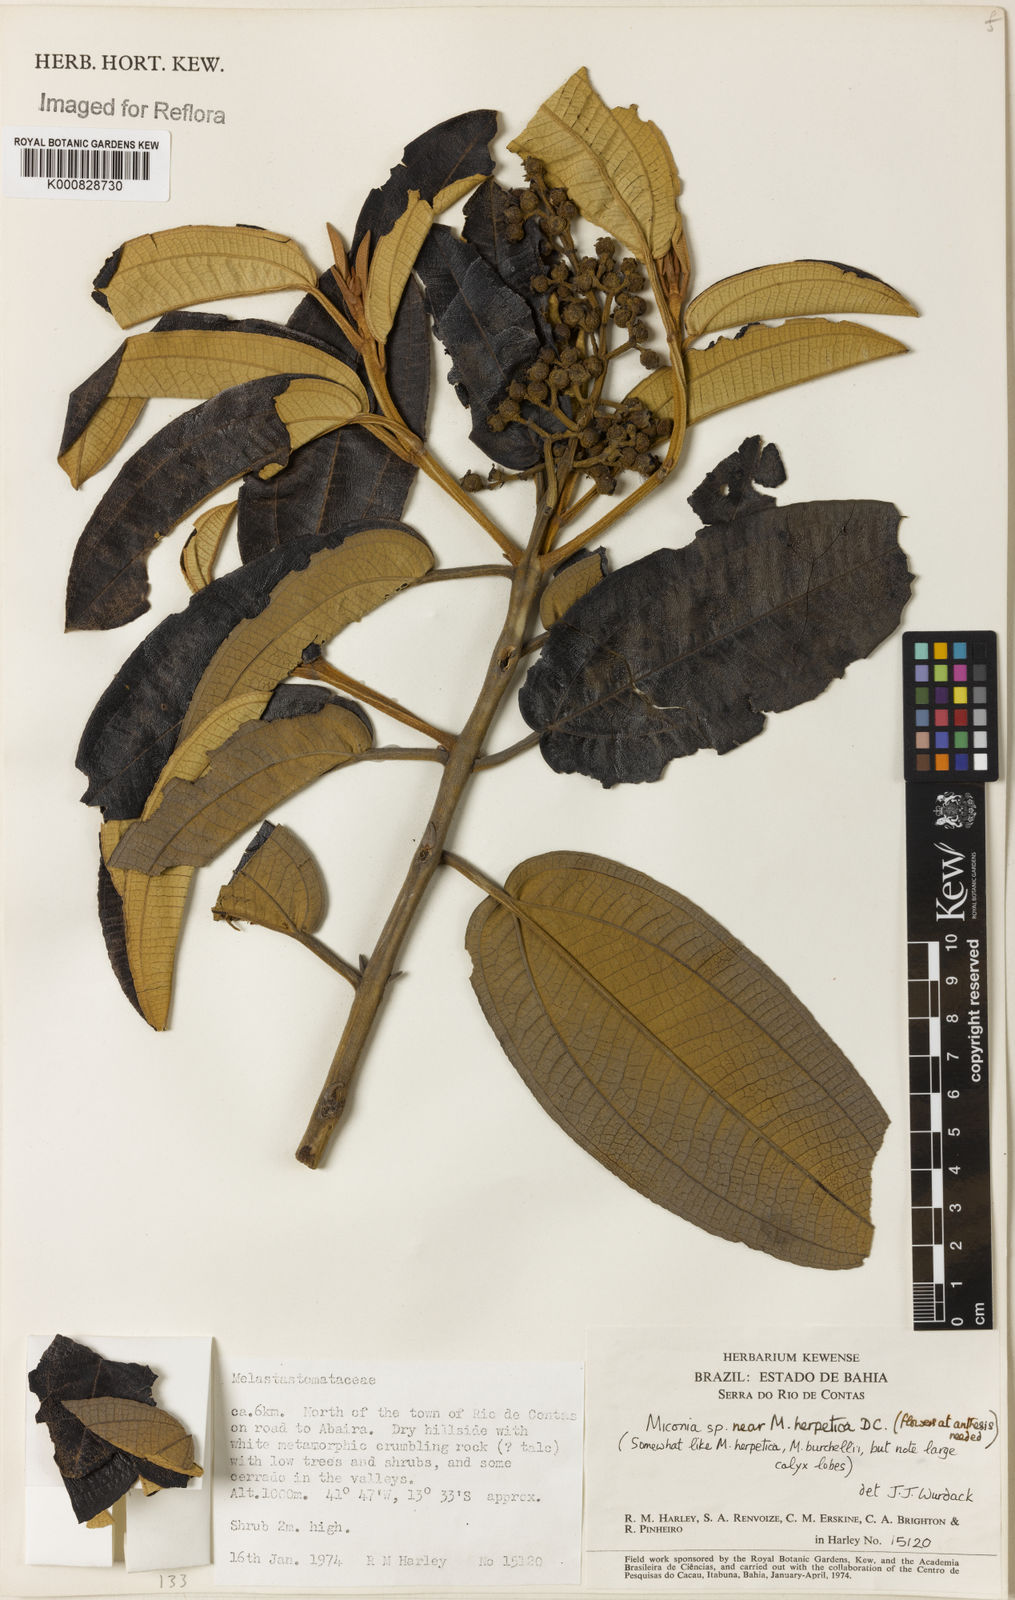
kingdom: Plantae
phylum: Tracheophyta
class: Magnoliopsida
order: Myrtales
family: Melastomataceae
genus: Miconia
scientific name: Miconia herpetica
